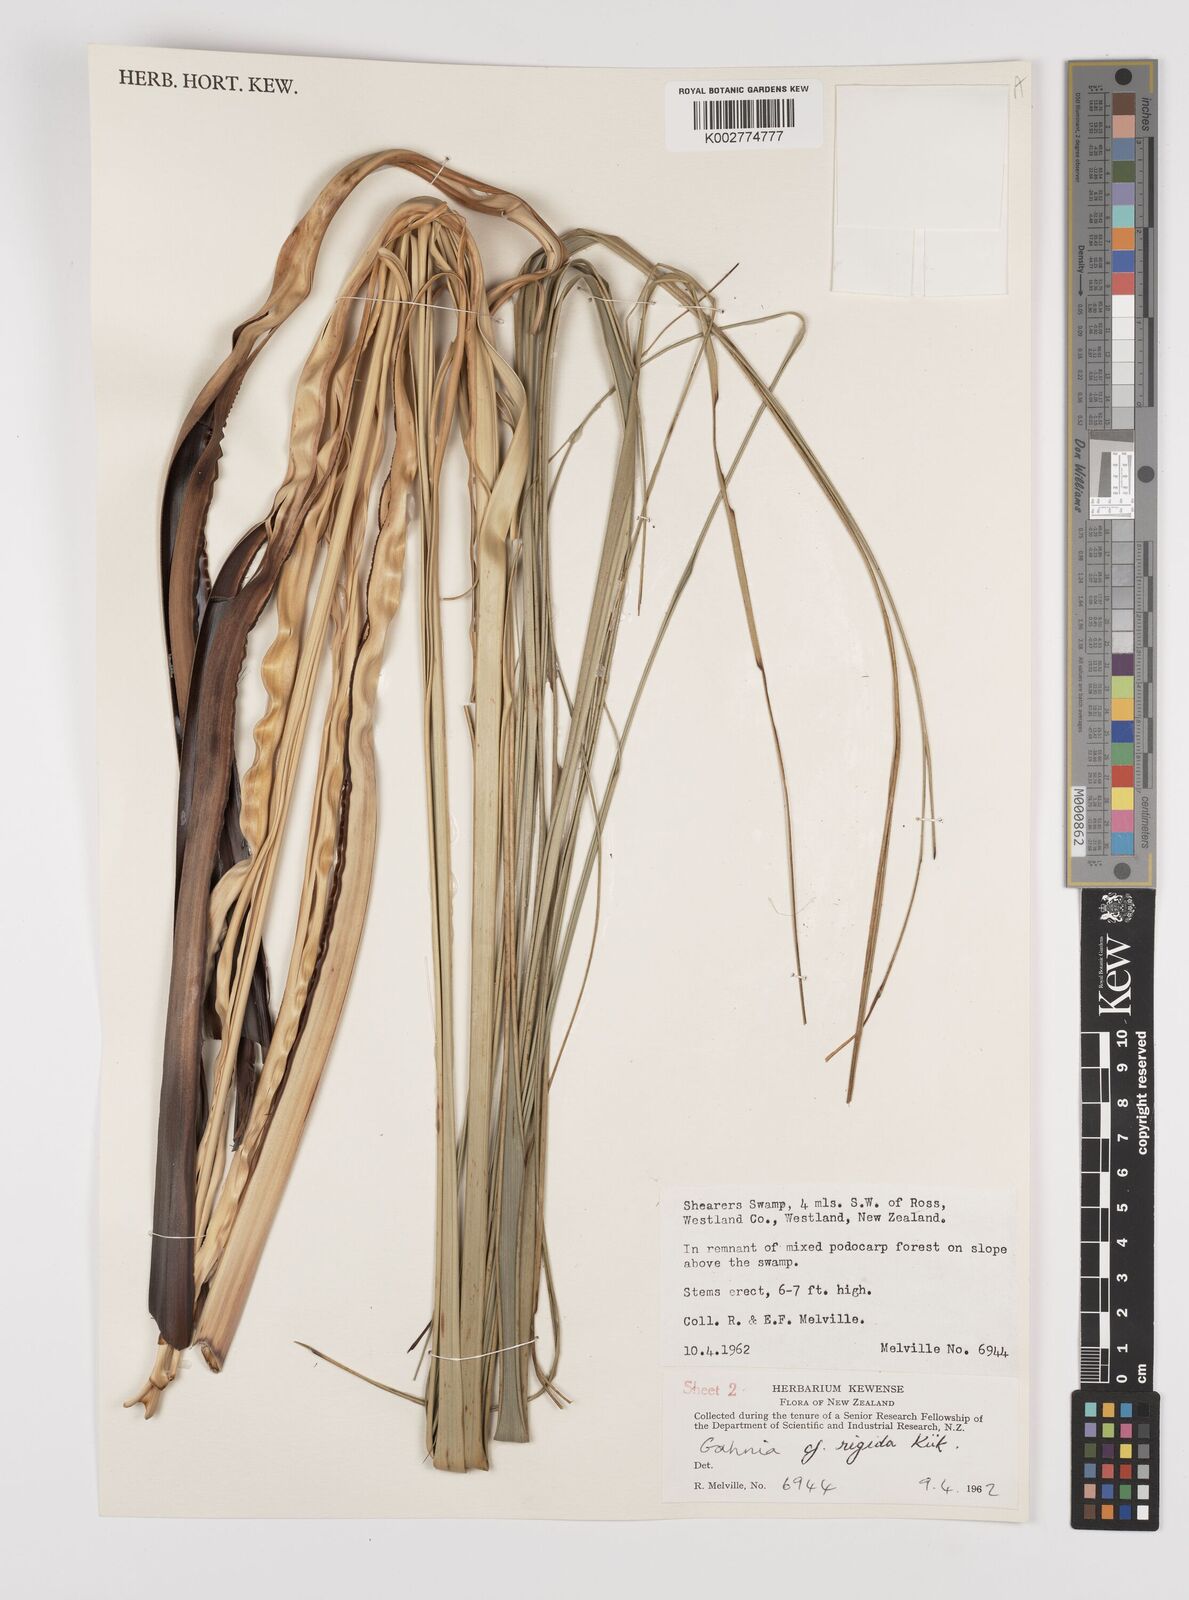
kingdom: Plantae
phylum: Tracheophyta
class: Liliopsida
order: Poales
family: Cyperaceae
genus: Gahnia
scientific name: Gahnia rigida
